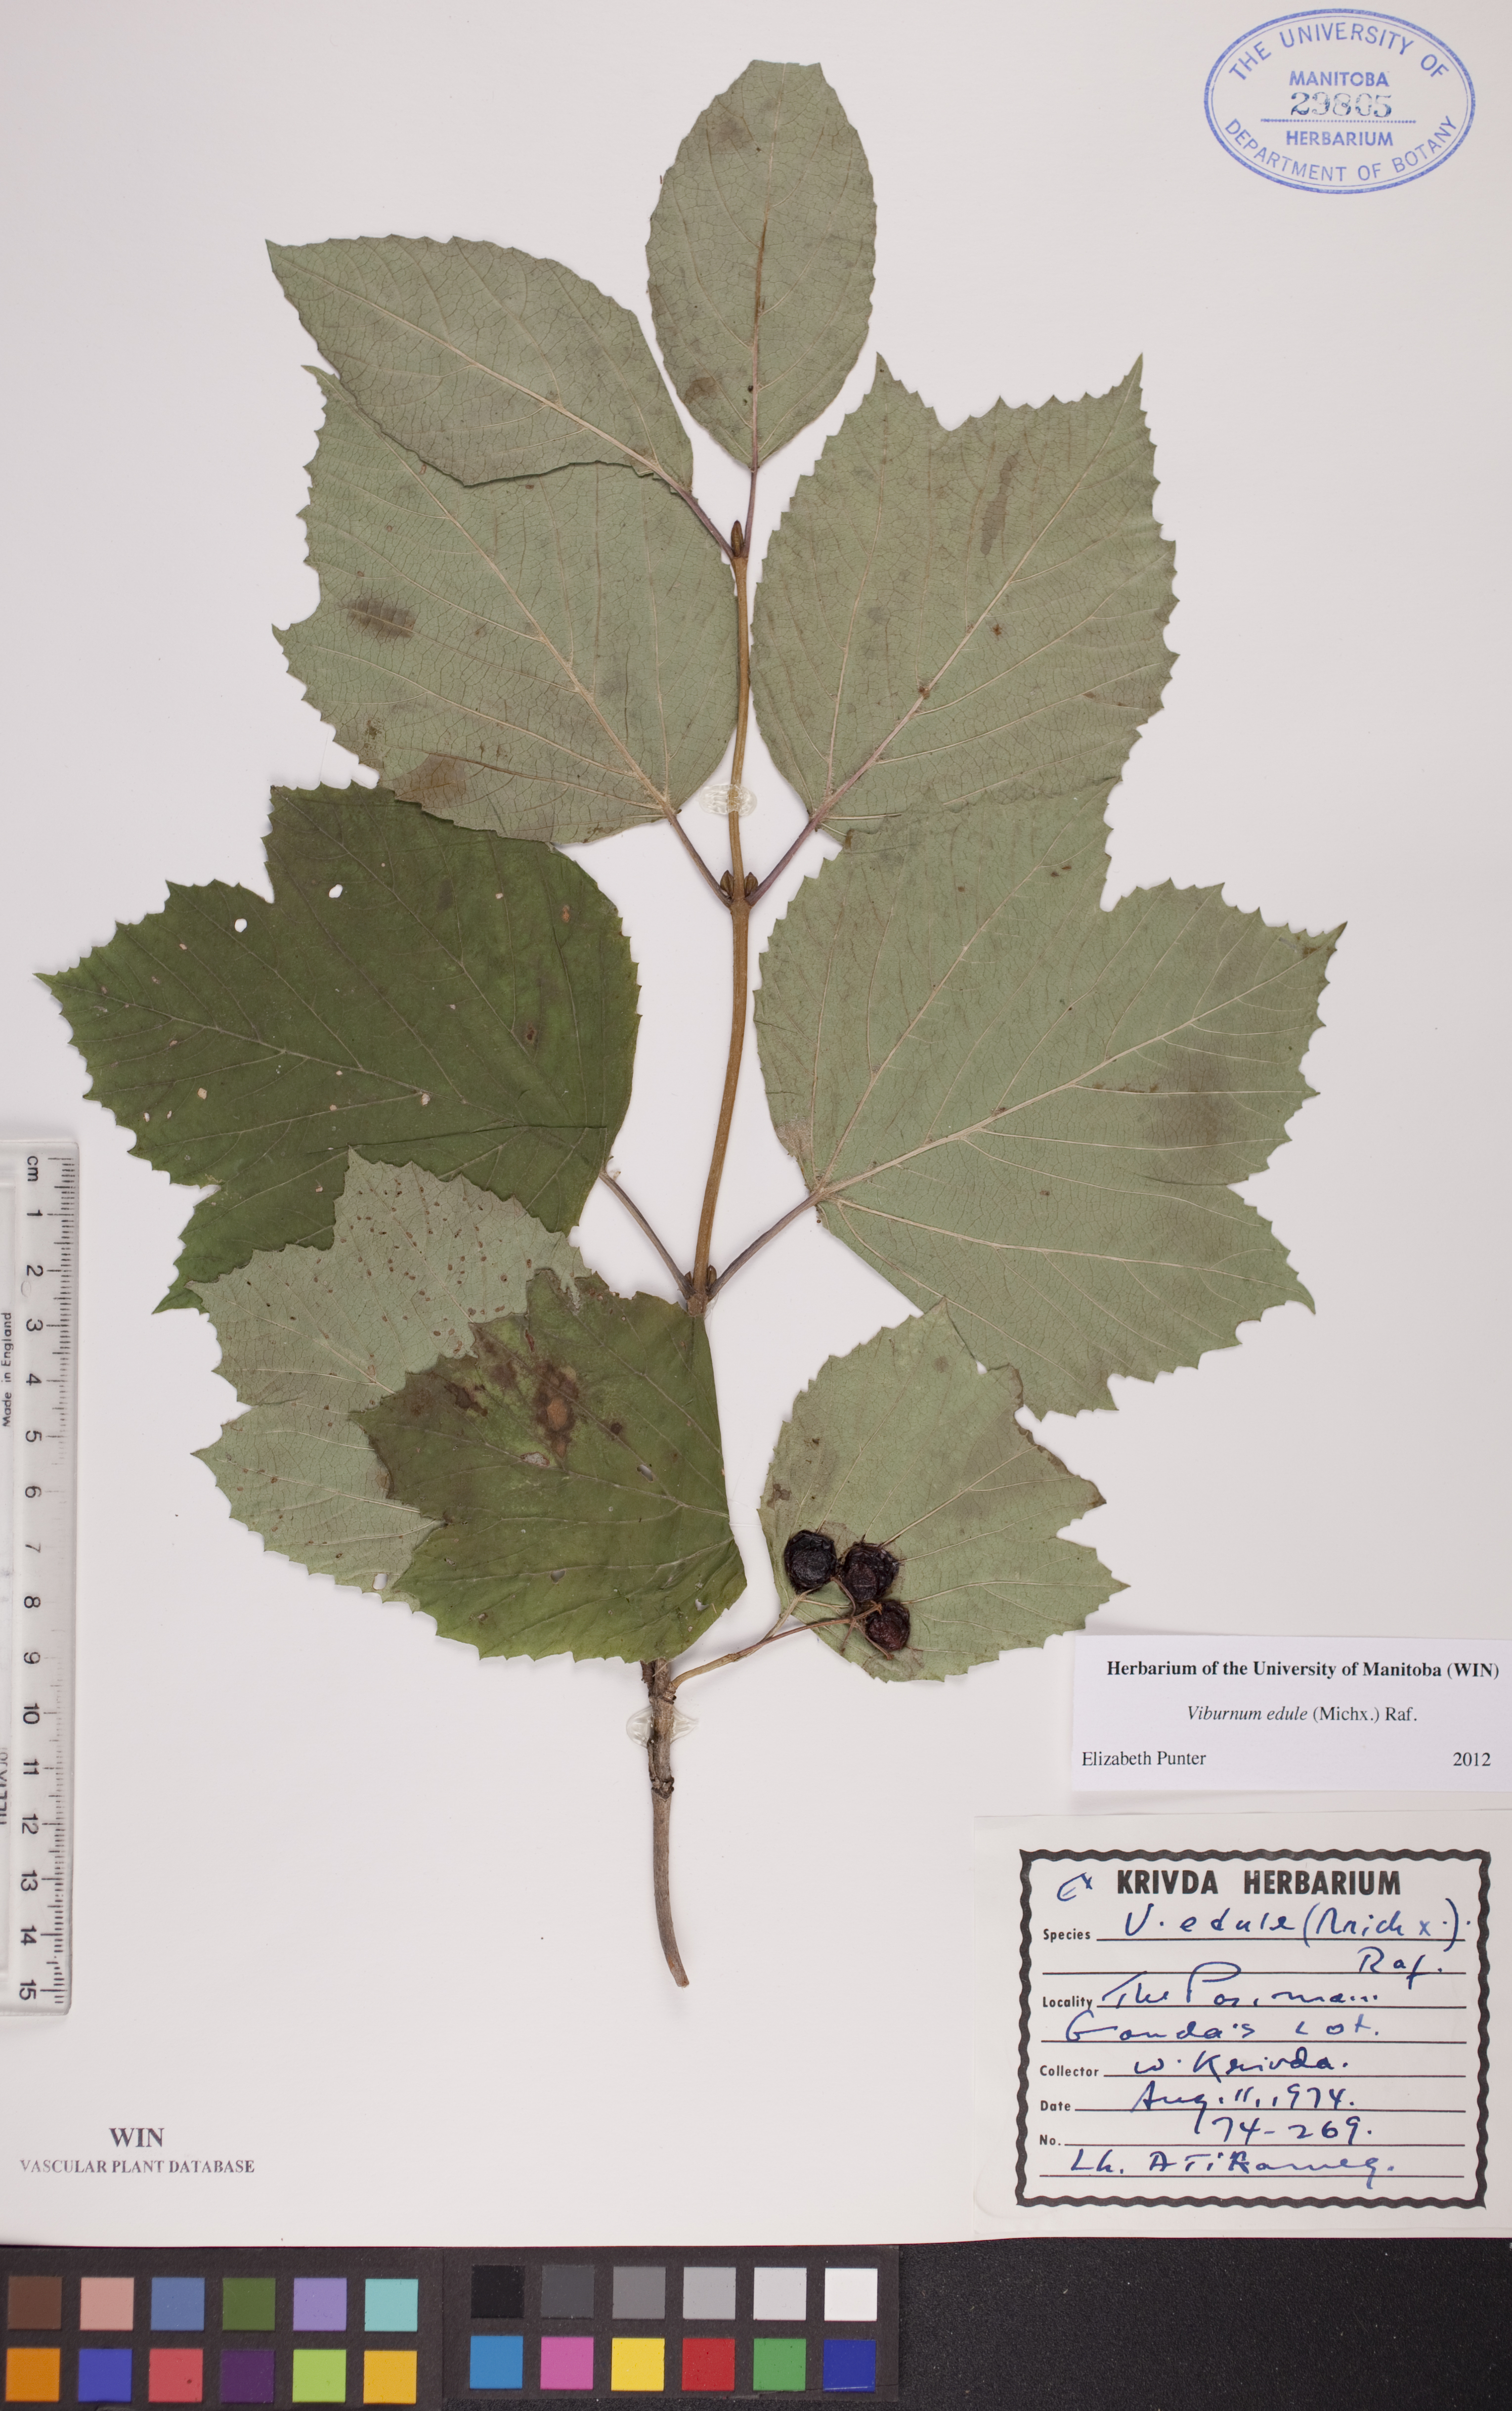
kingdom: Plantae
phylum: Tracheophyta
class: Magnoliopsida
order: Dipsacales
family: Viburnaceae
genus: Viburnum
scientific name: Viburnum edule
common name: Mooseberry
